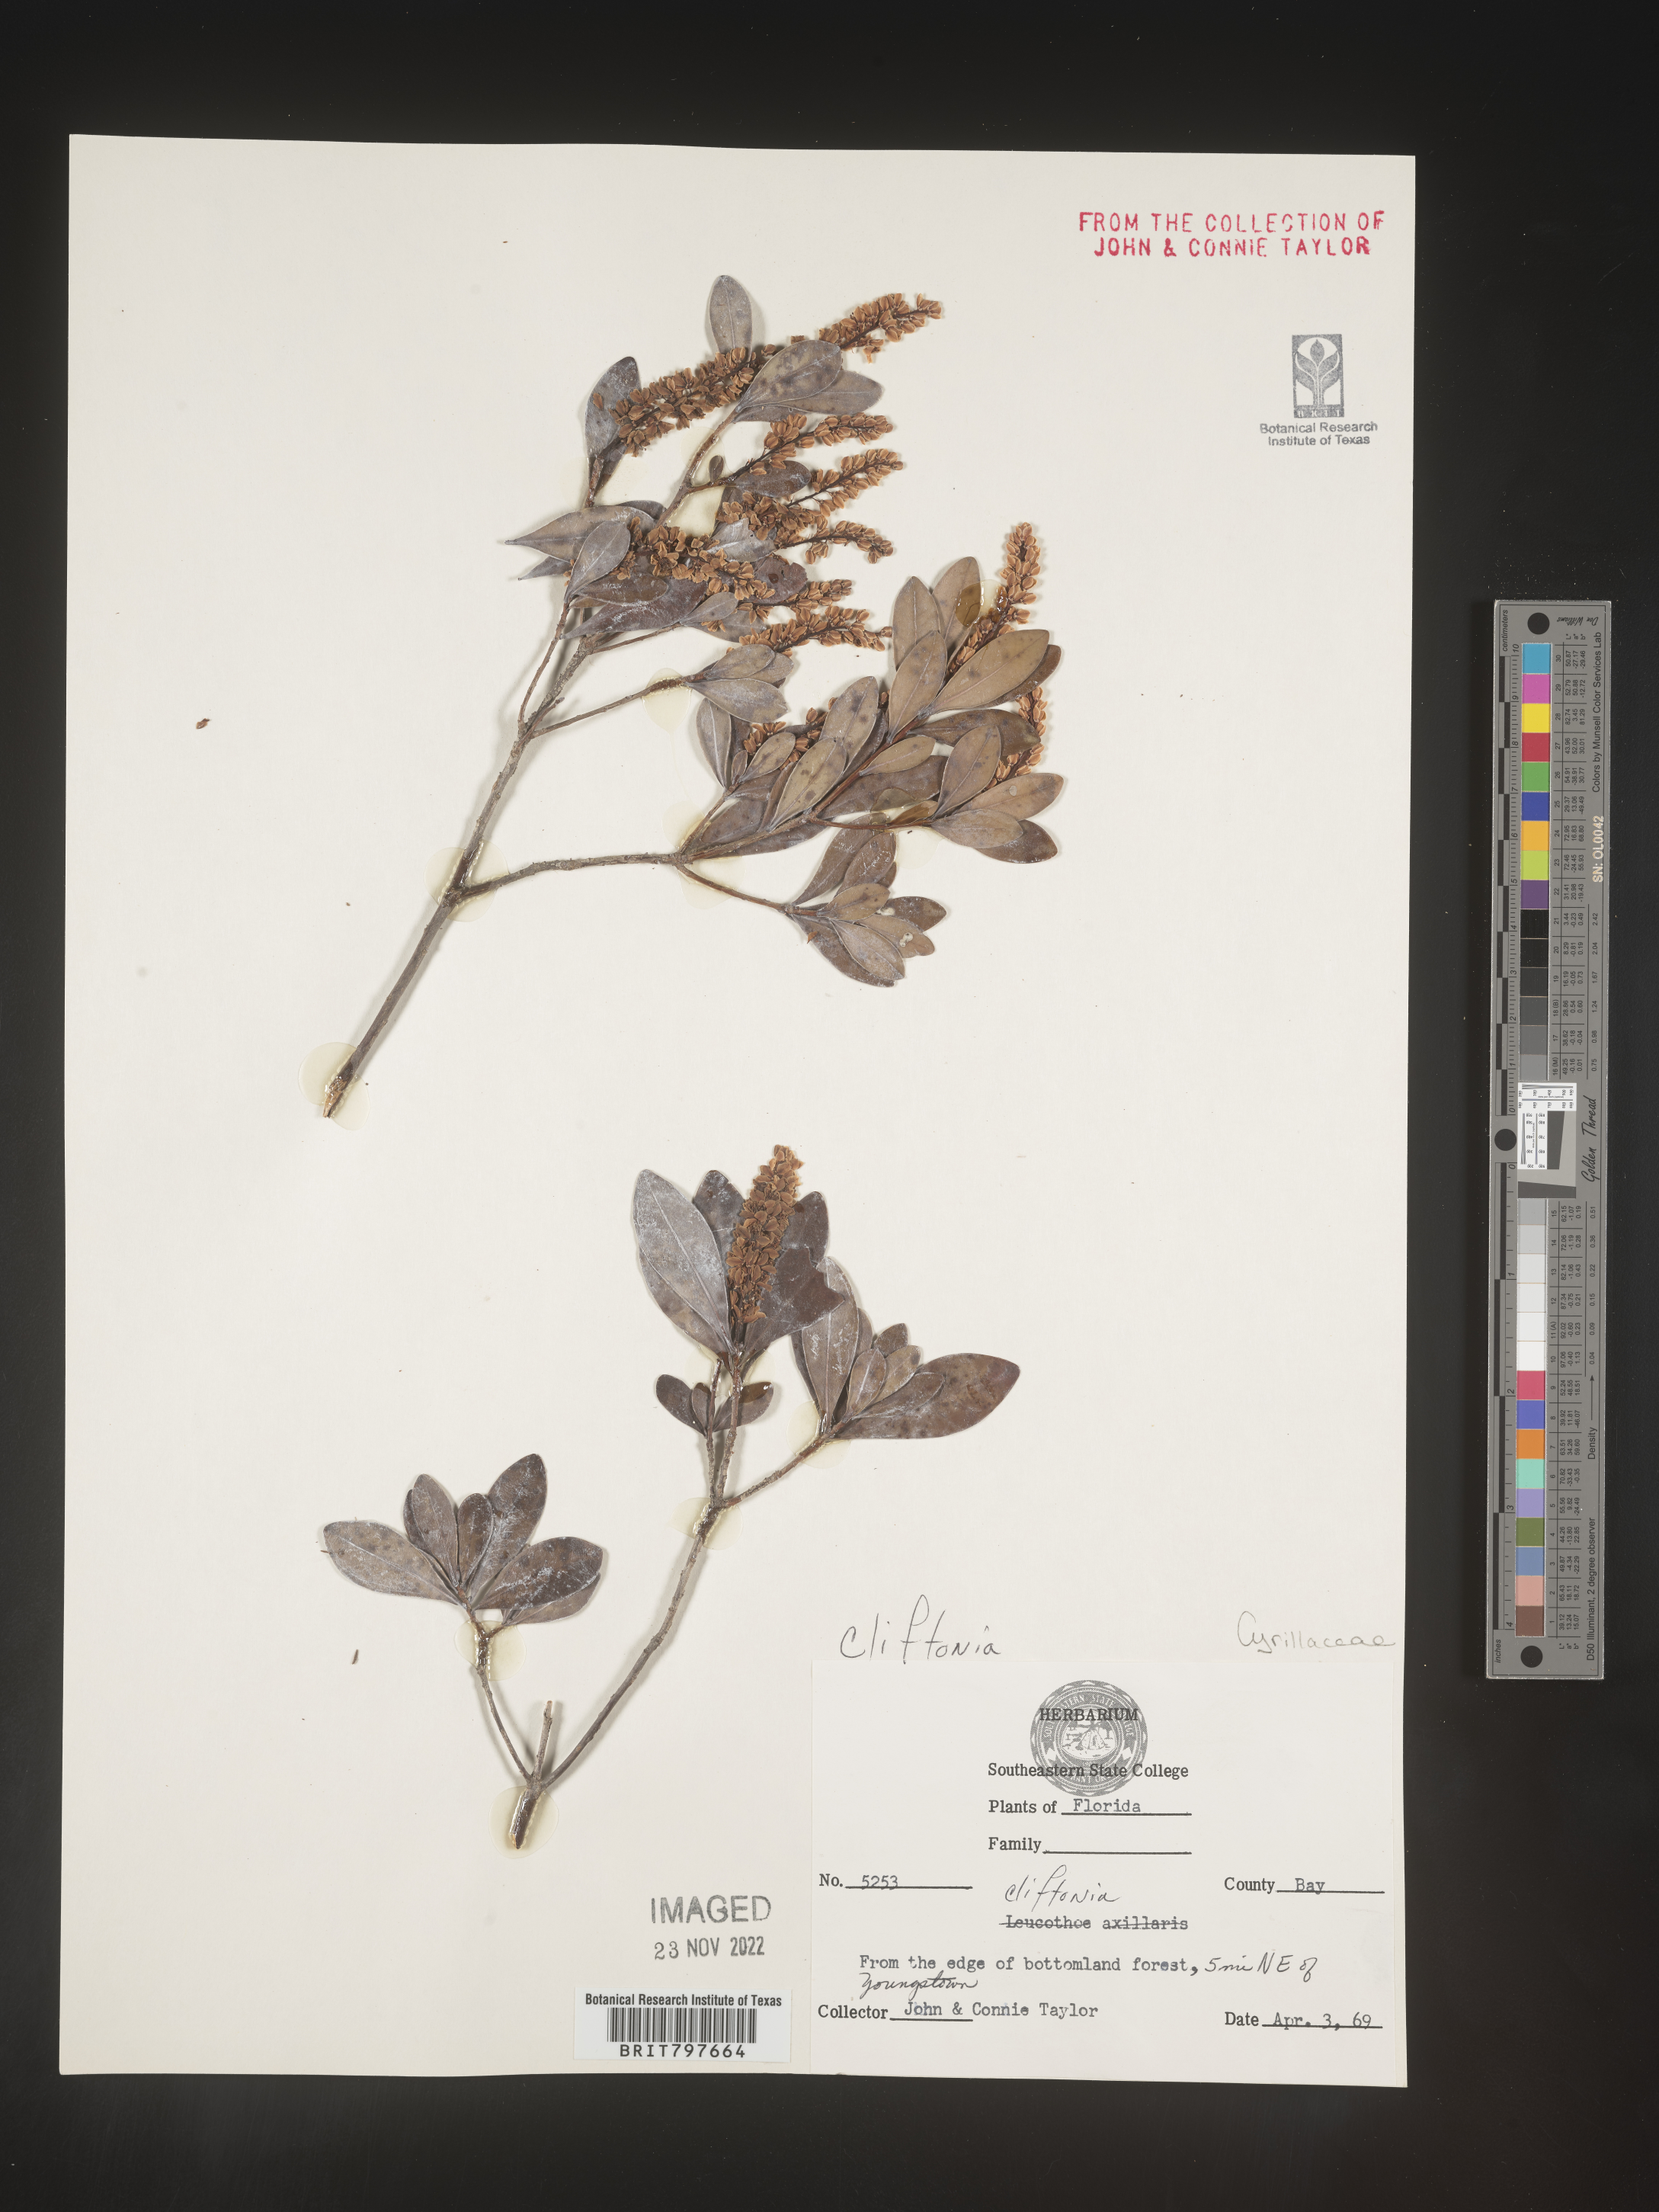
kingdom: Plantae
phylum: Tracheophyta
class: Magnoliopsida
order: Ericales
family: Cyrillaceae
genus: Cliftonia
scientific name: Cliftonia monophylla
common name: Titi
